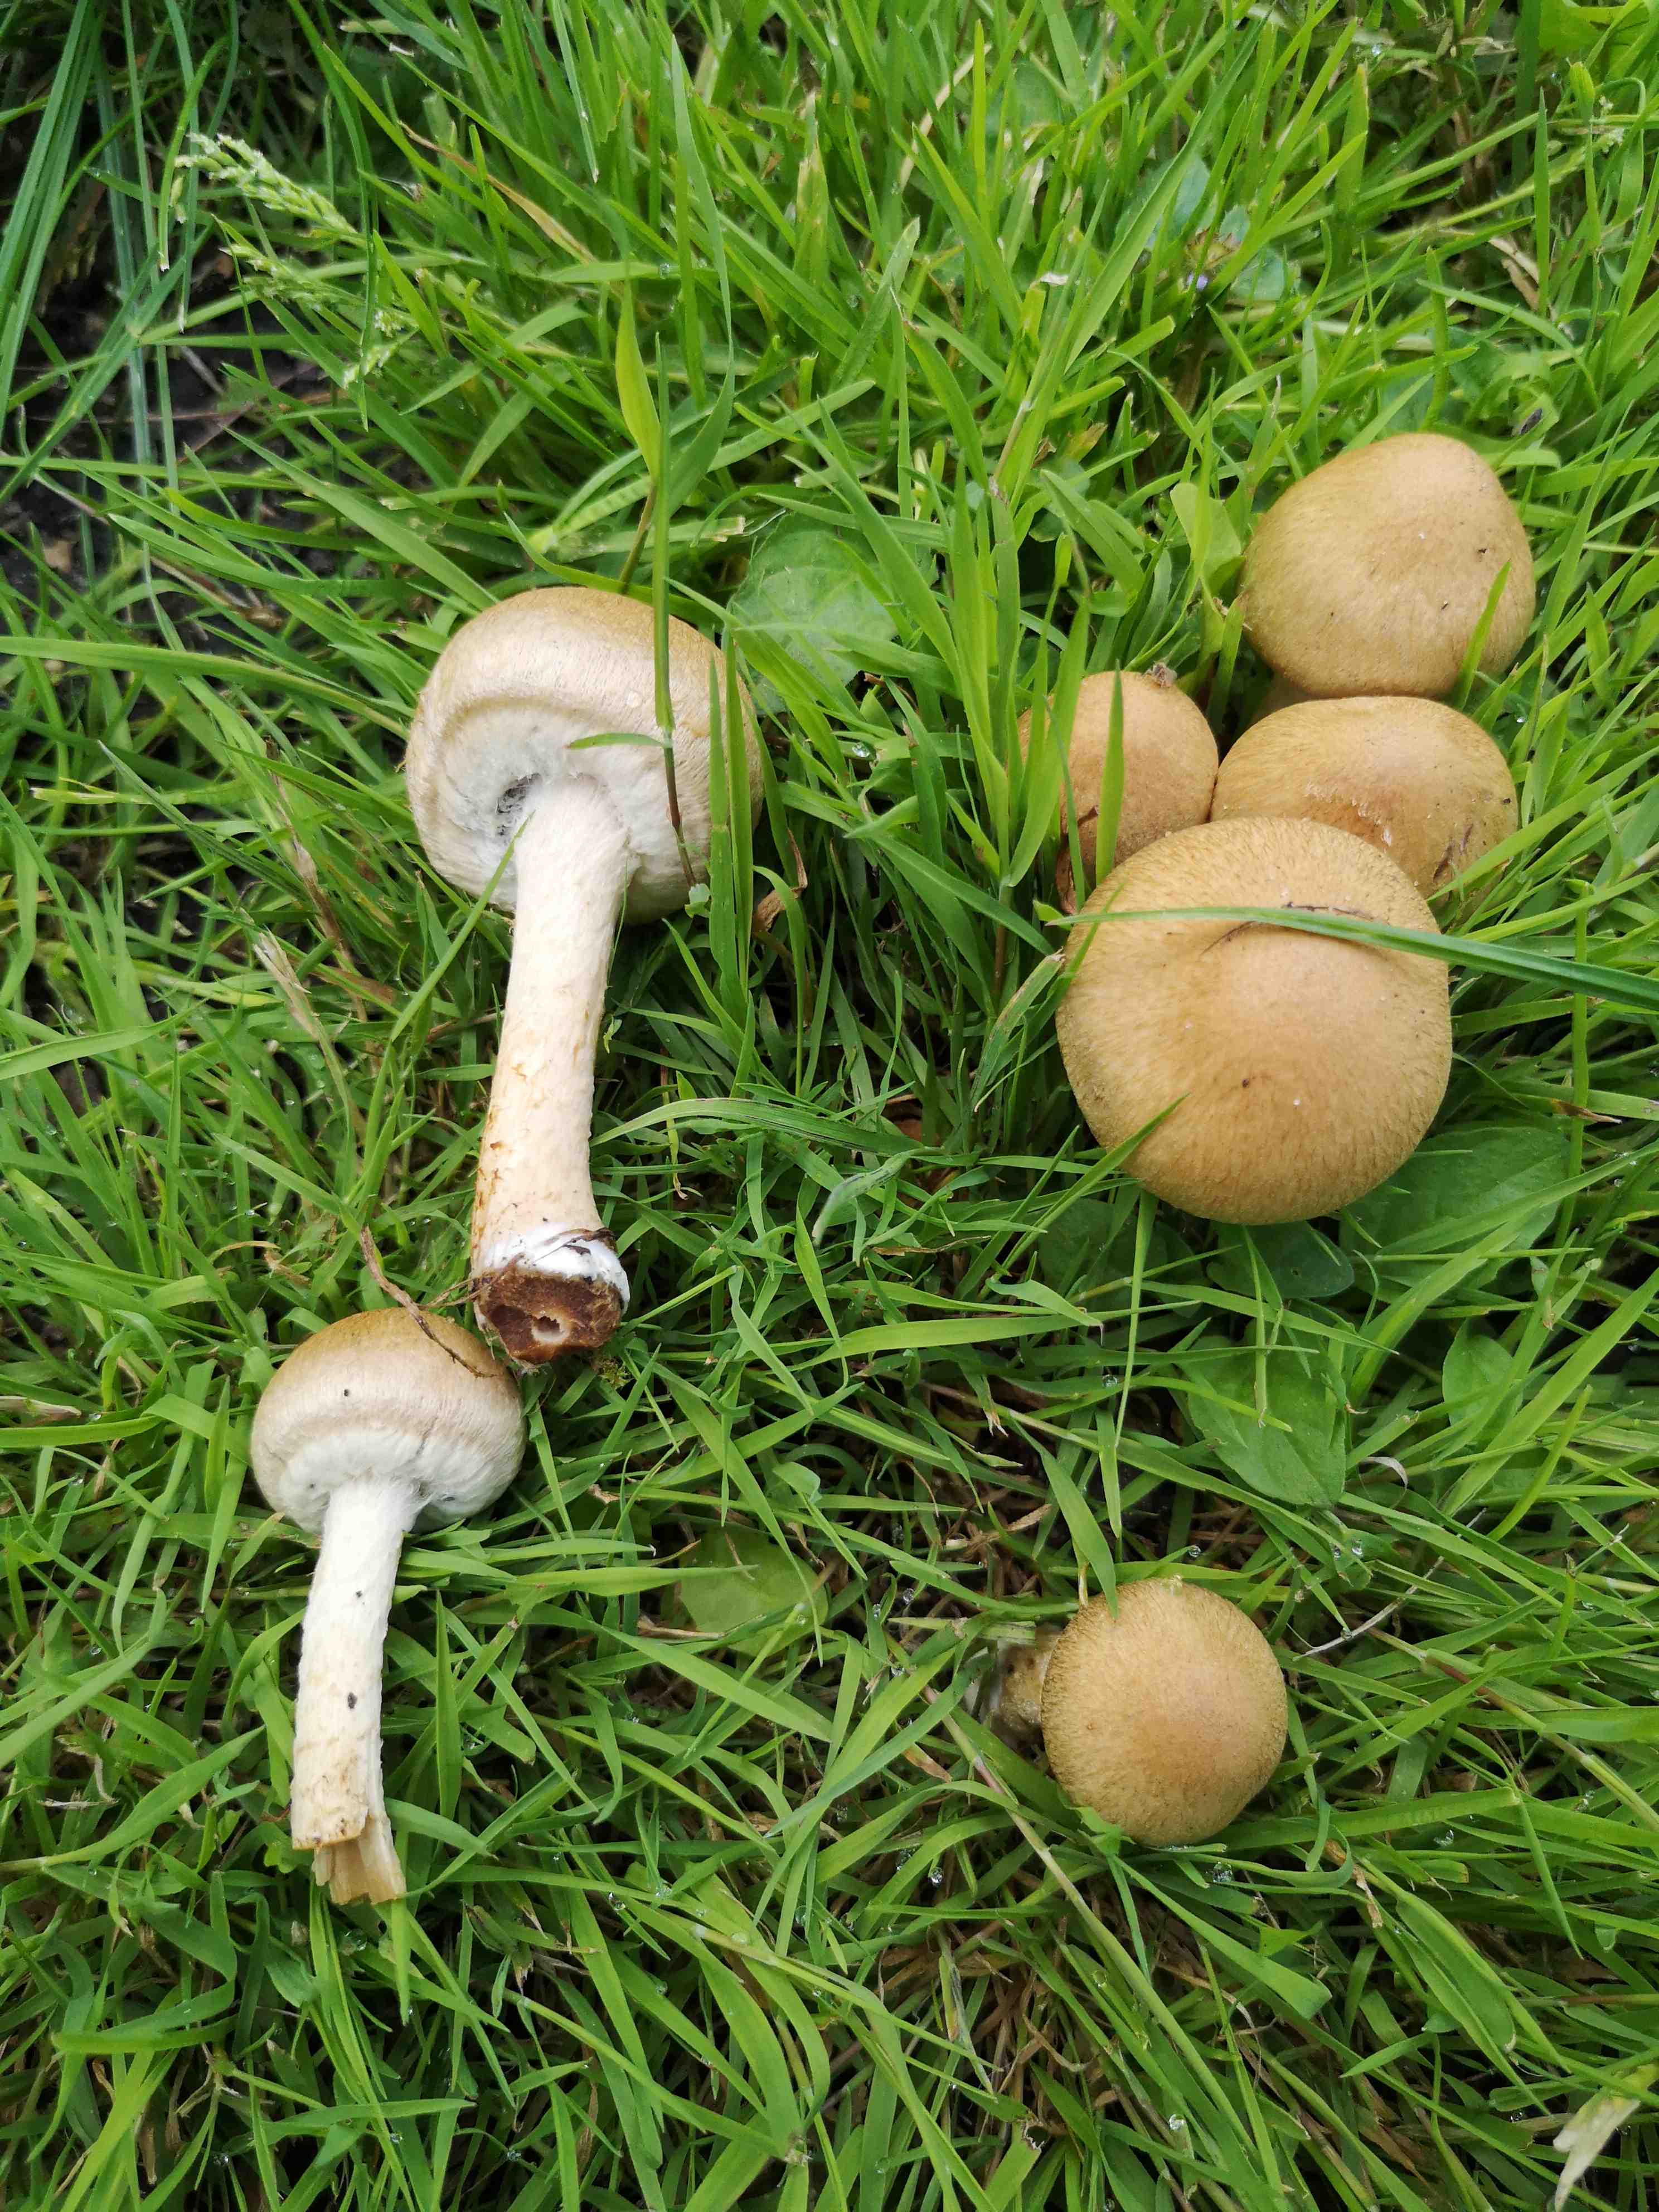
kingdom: Fungi
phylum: Basidiomycota
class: Agaricomycetes
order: Agaricales
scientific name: Agaricales
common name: champignonordenen
